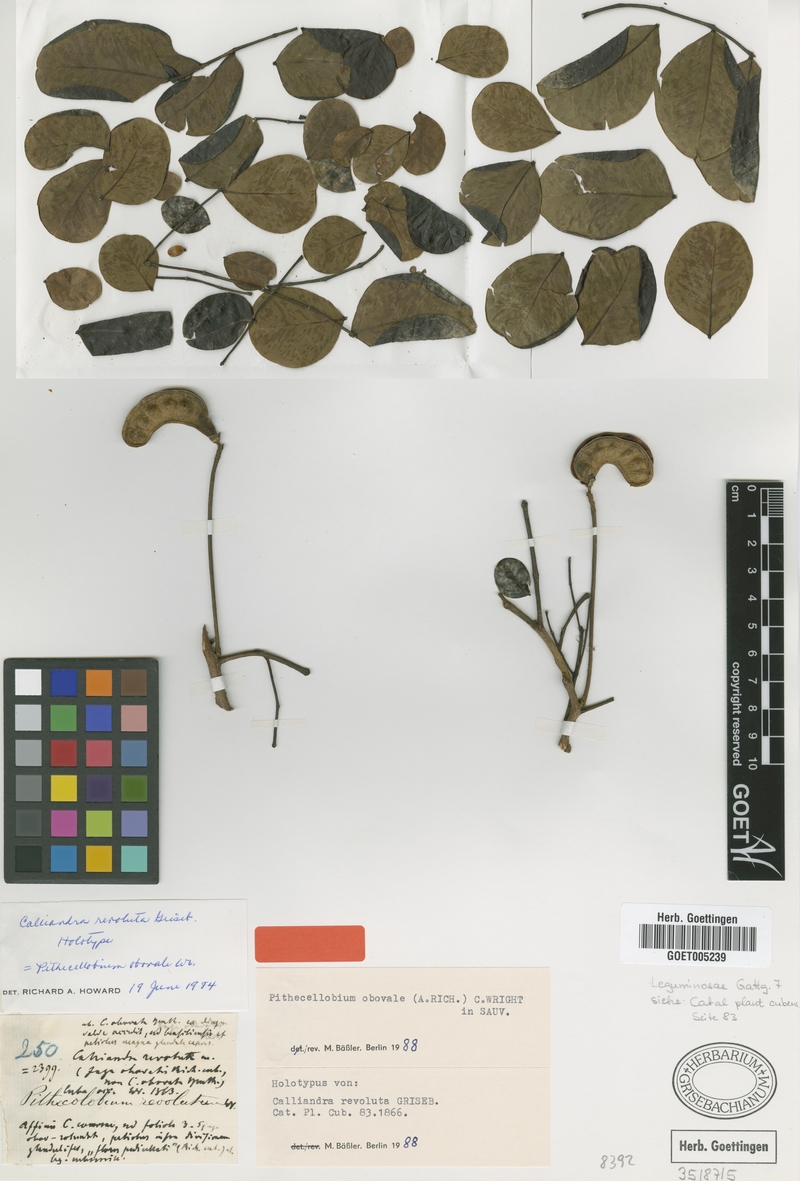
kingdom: Plantae
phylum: Tracheophyta
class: Magnoliopsida
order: Fabales
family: Fabaceae
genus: Jupunba
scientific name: Jupunba obovalis
